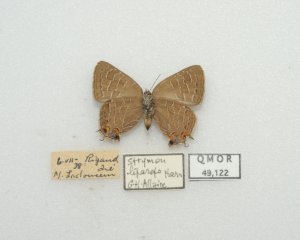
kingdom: Animalia
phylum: Arthropoda
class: Insecta
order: Lepidoptera
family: Lycaenidae
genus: Satyrium
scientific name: Satyrium liparops
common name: Striped Hairstreak
